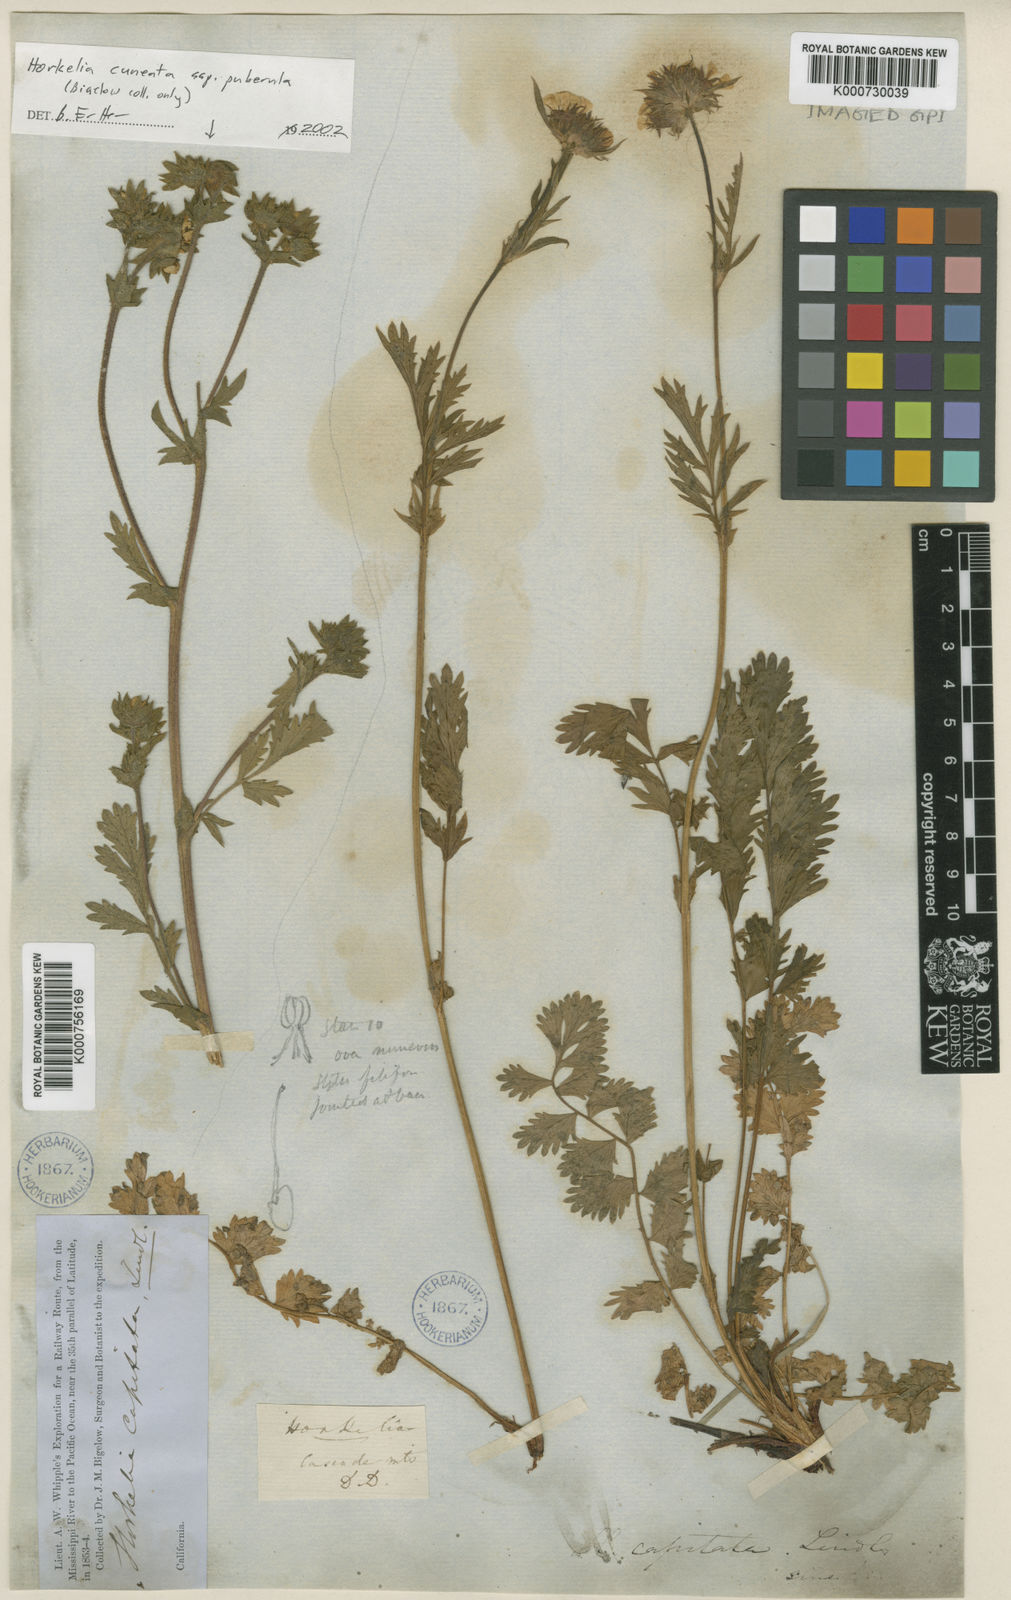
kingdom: Plantae
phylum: Tracheophyta
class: Magnoliopsida
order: Rosales
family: Rosaceae
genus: Potentilla
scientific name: Potentilla lindleyi
